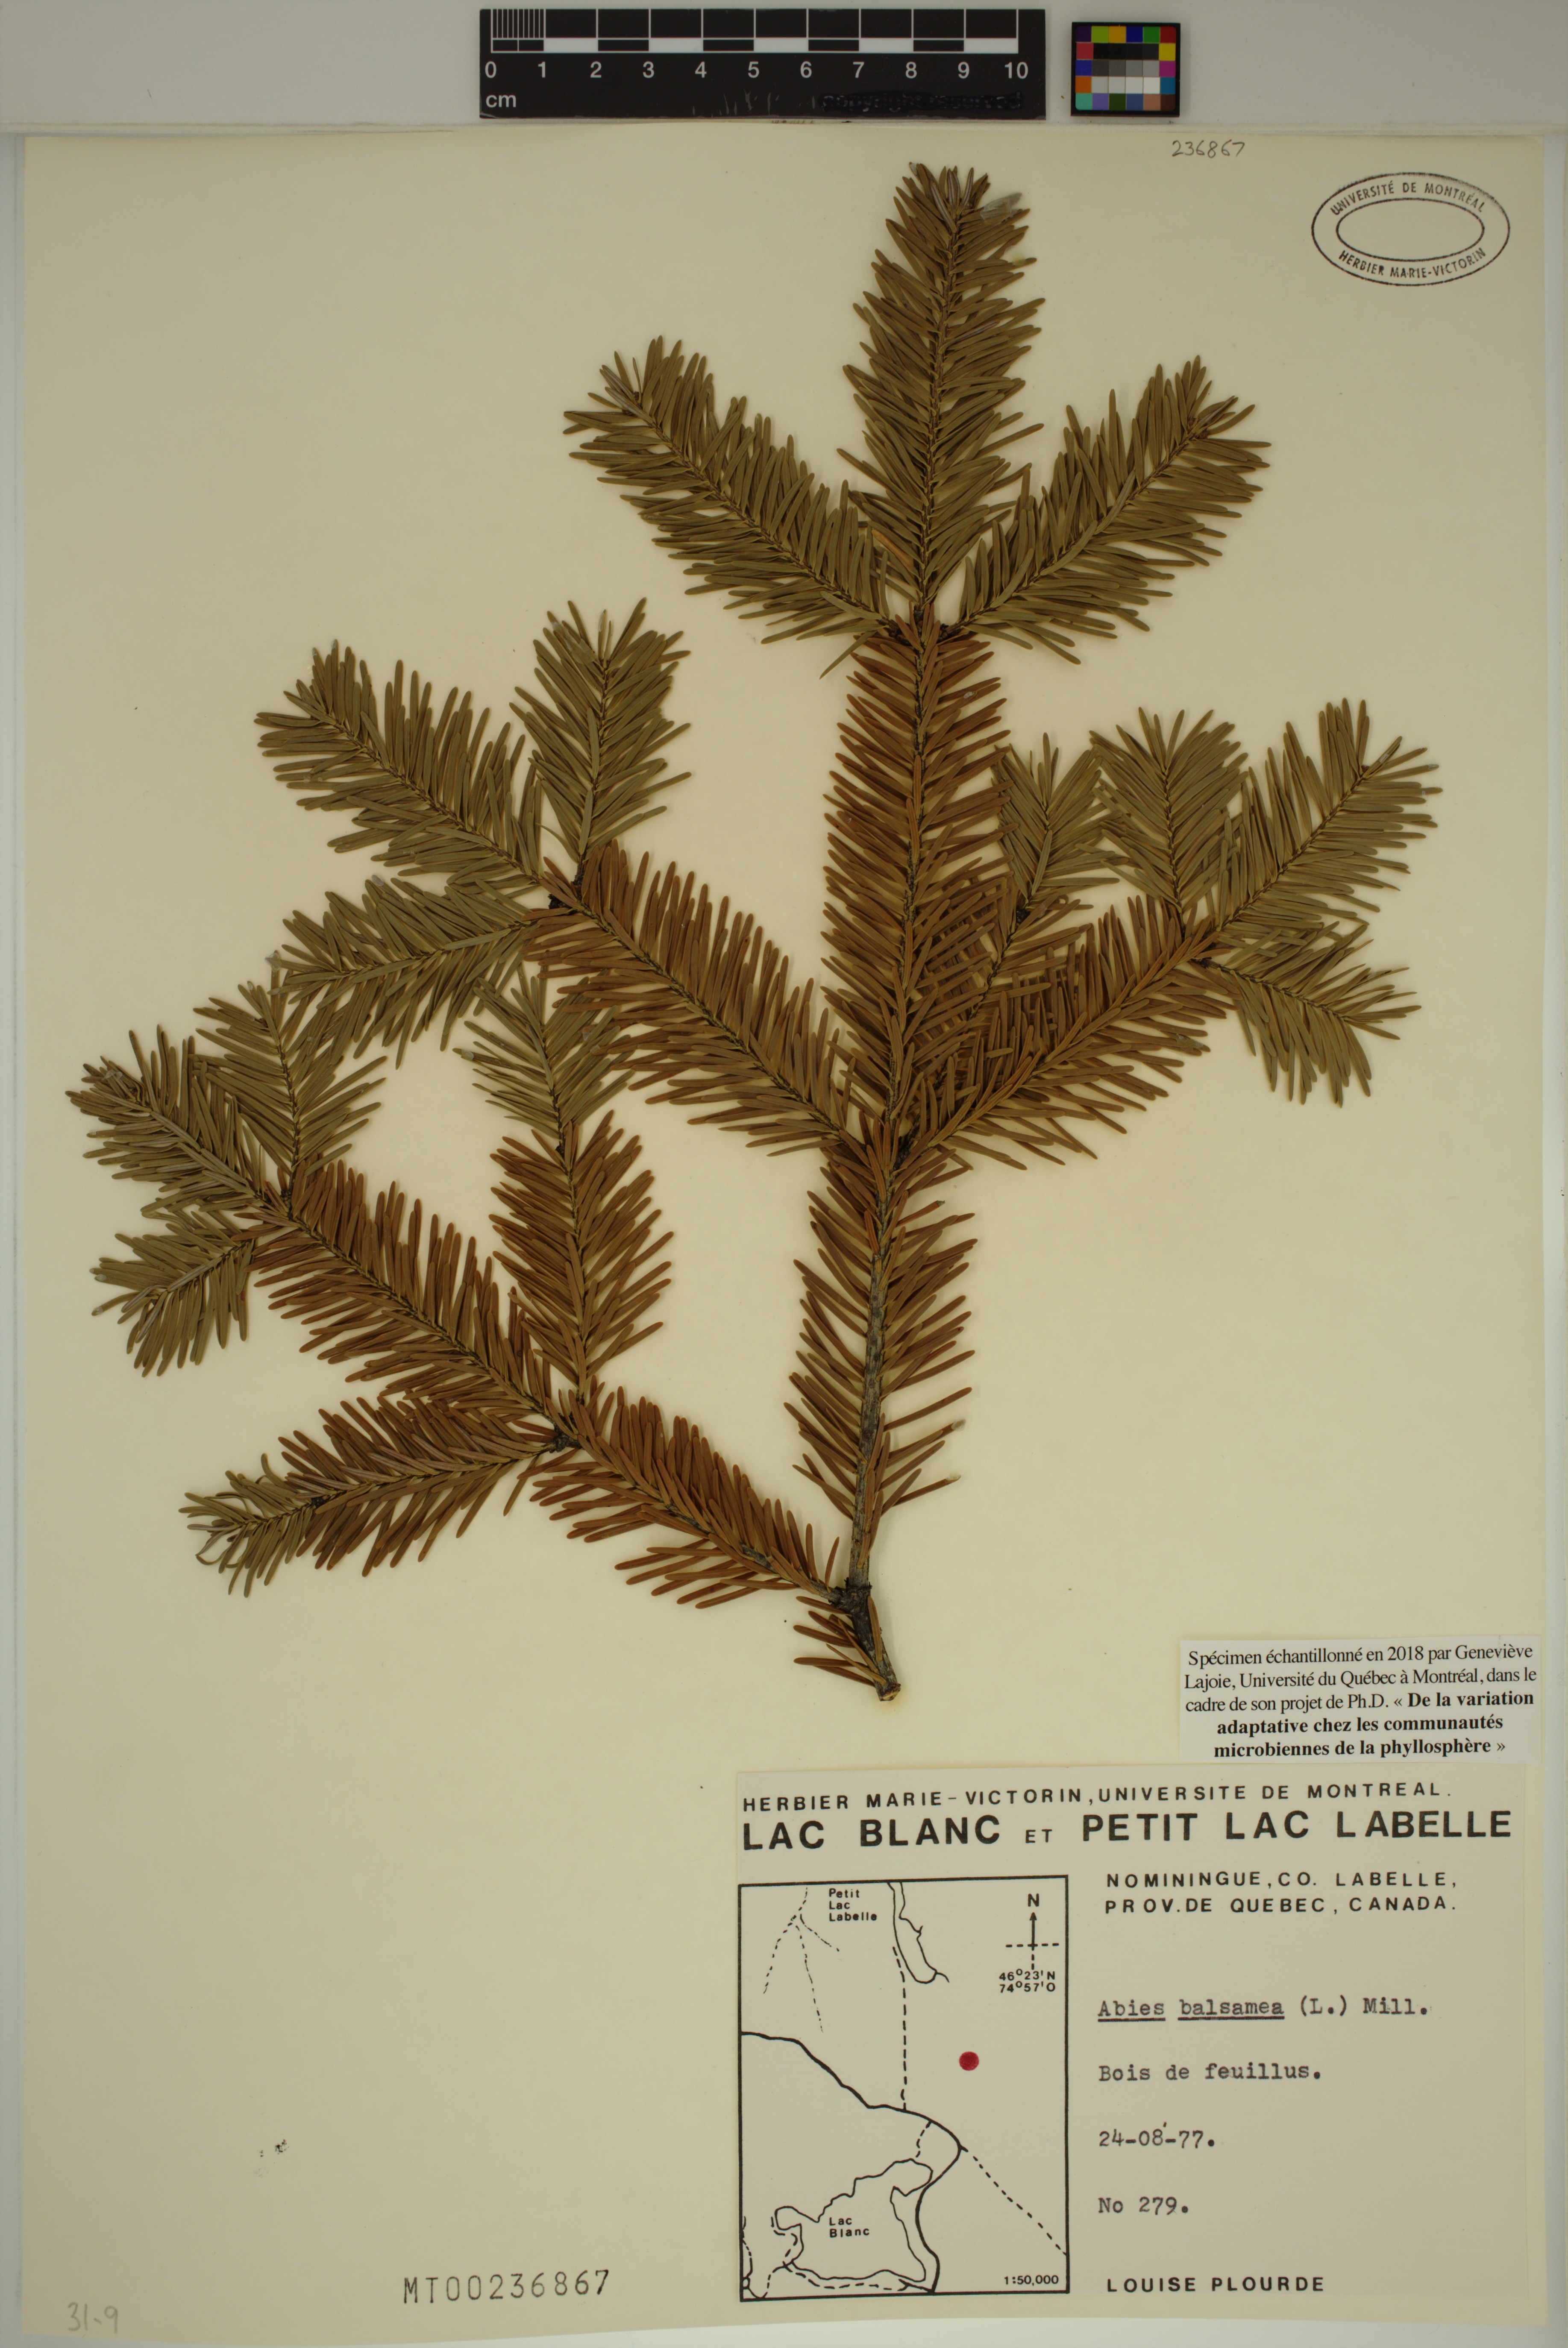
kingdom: Plantae
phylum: Tracheophyta
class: Pinopsida
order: Pinales
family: Pinaceae
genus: Abies
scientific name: Abies balsamea
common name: Balsam fir
